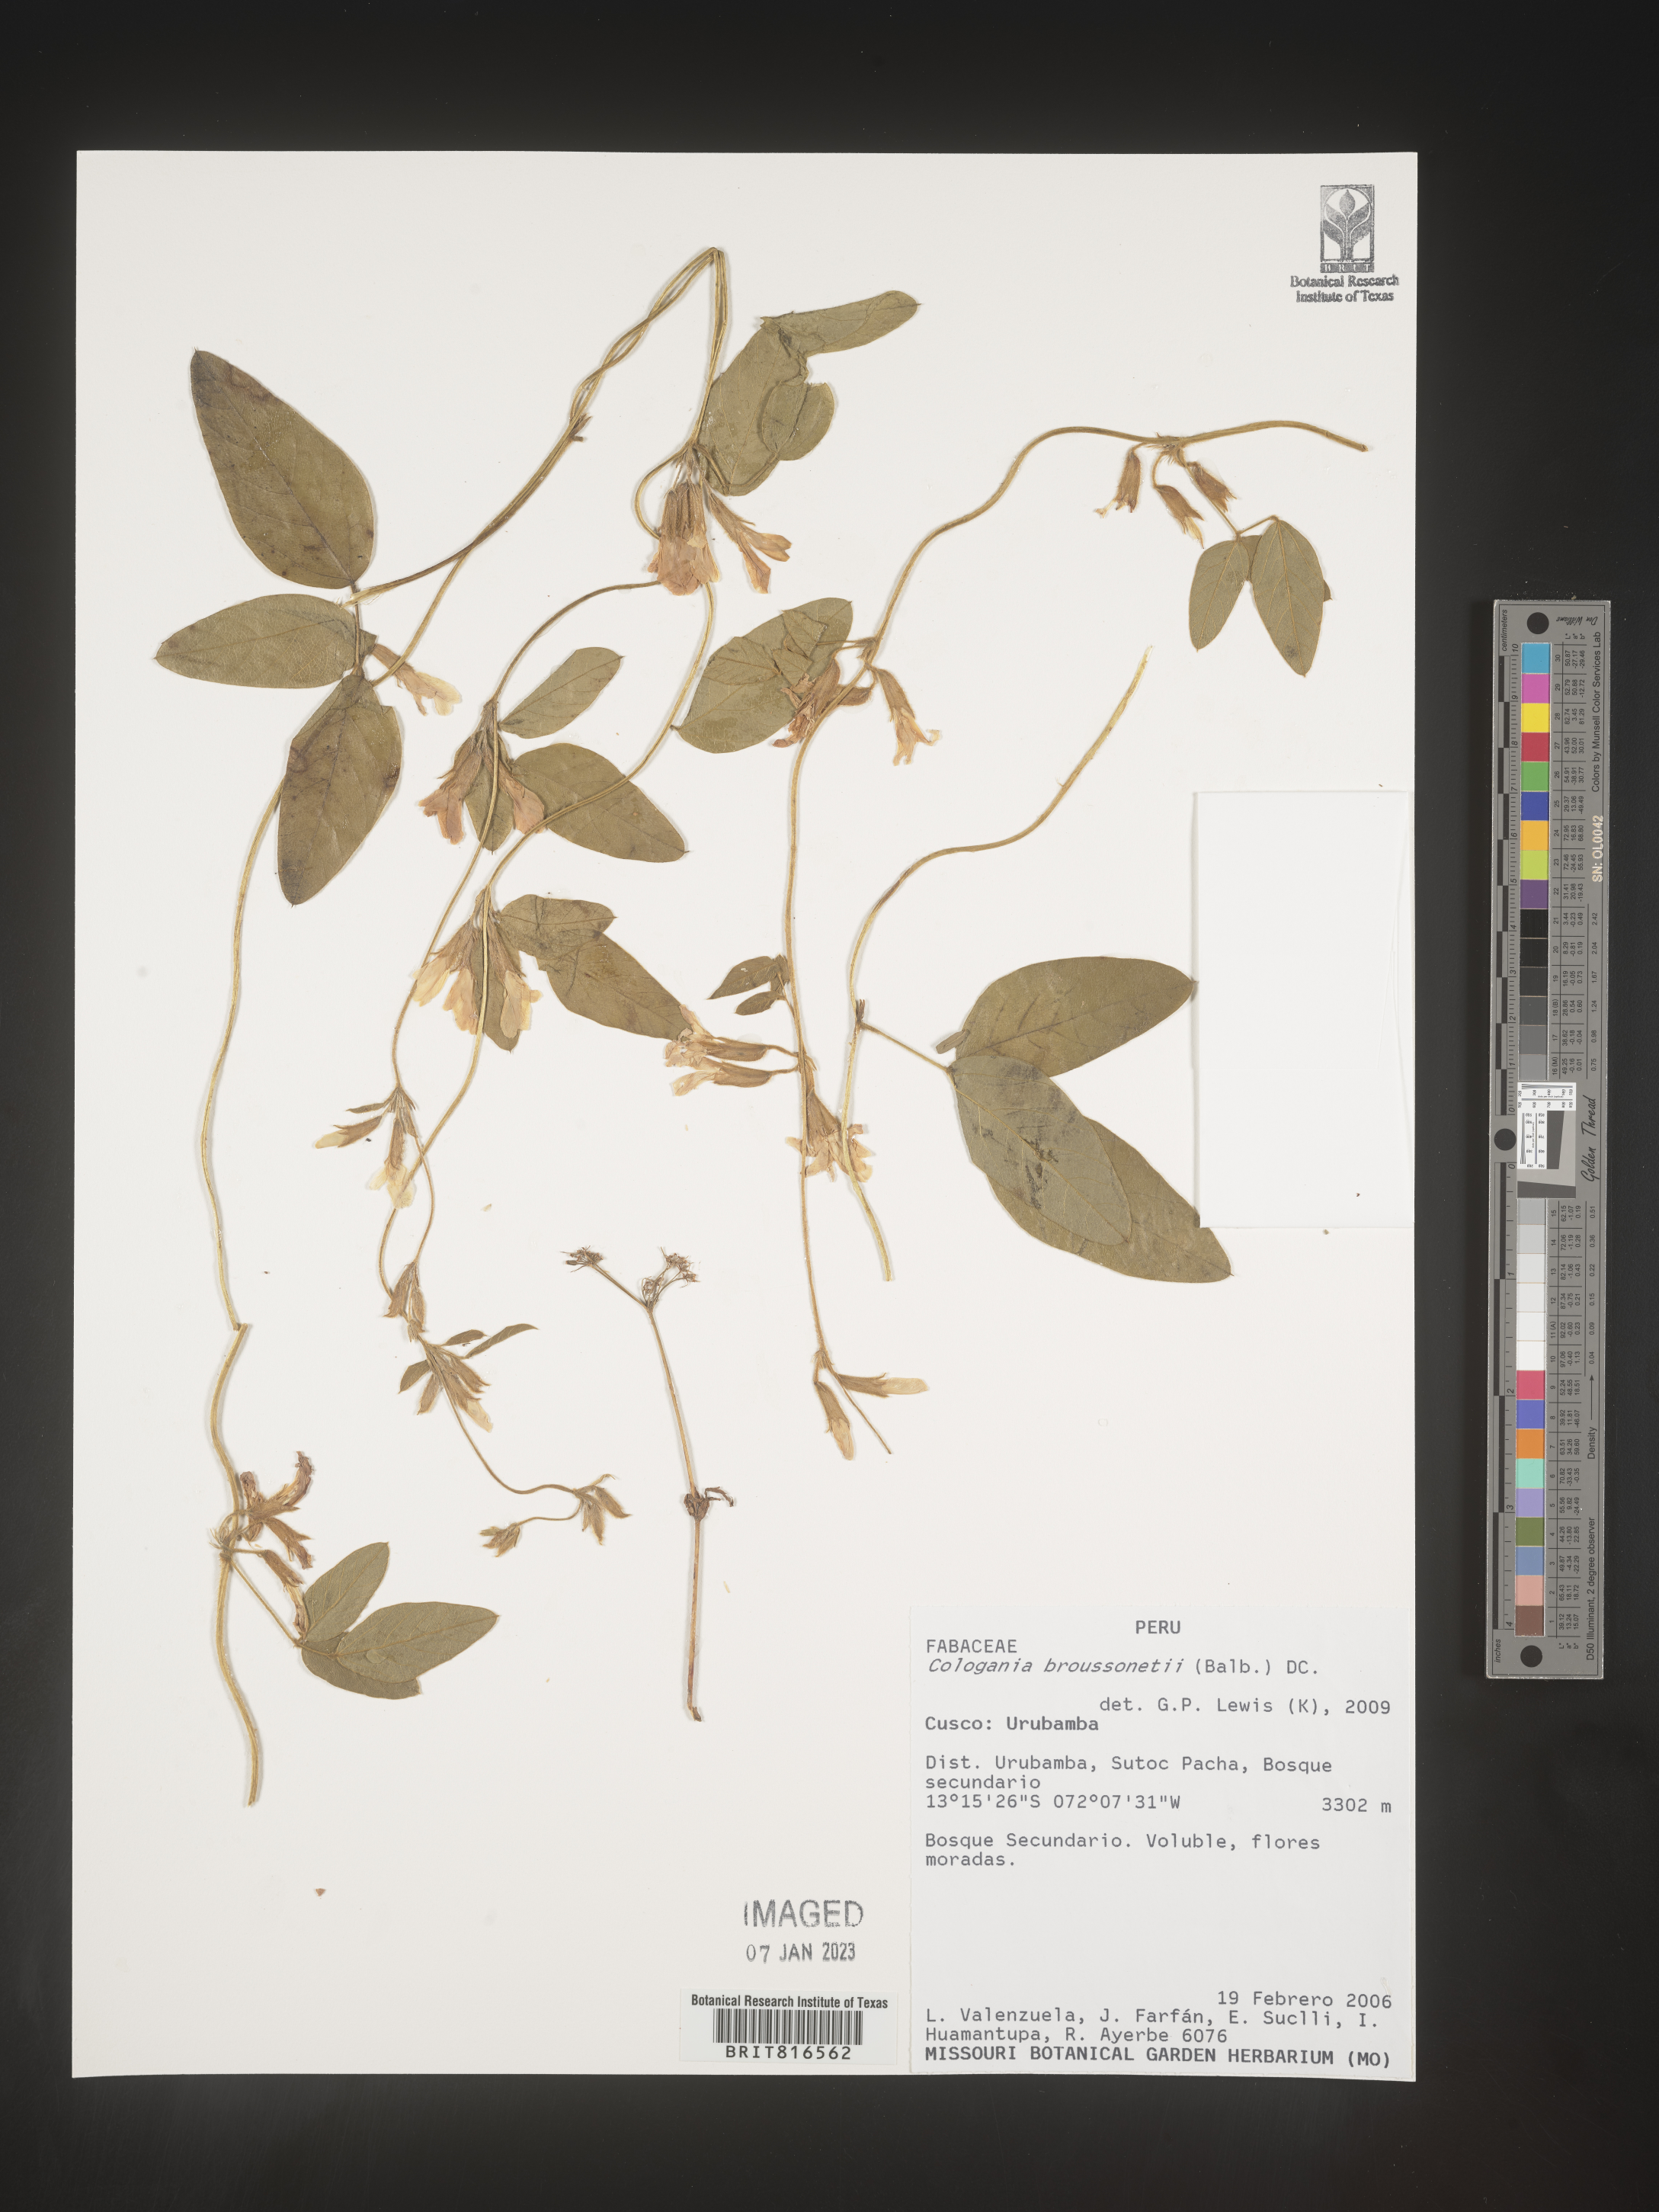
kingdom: Plantae
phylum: Tracheophyta
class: Magnoliopsida
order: Fabales
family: Fabaceae
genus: Cologania
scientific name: Cologania
